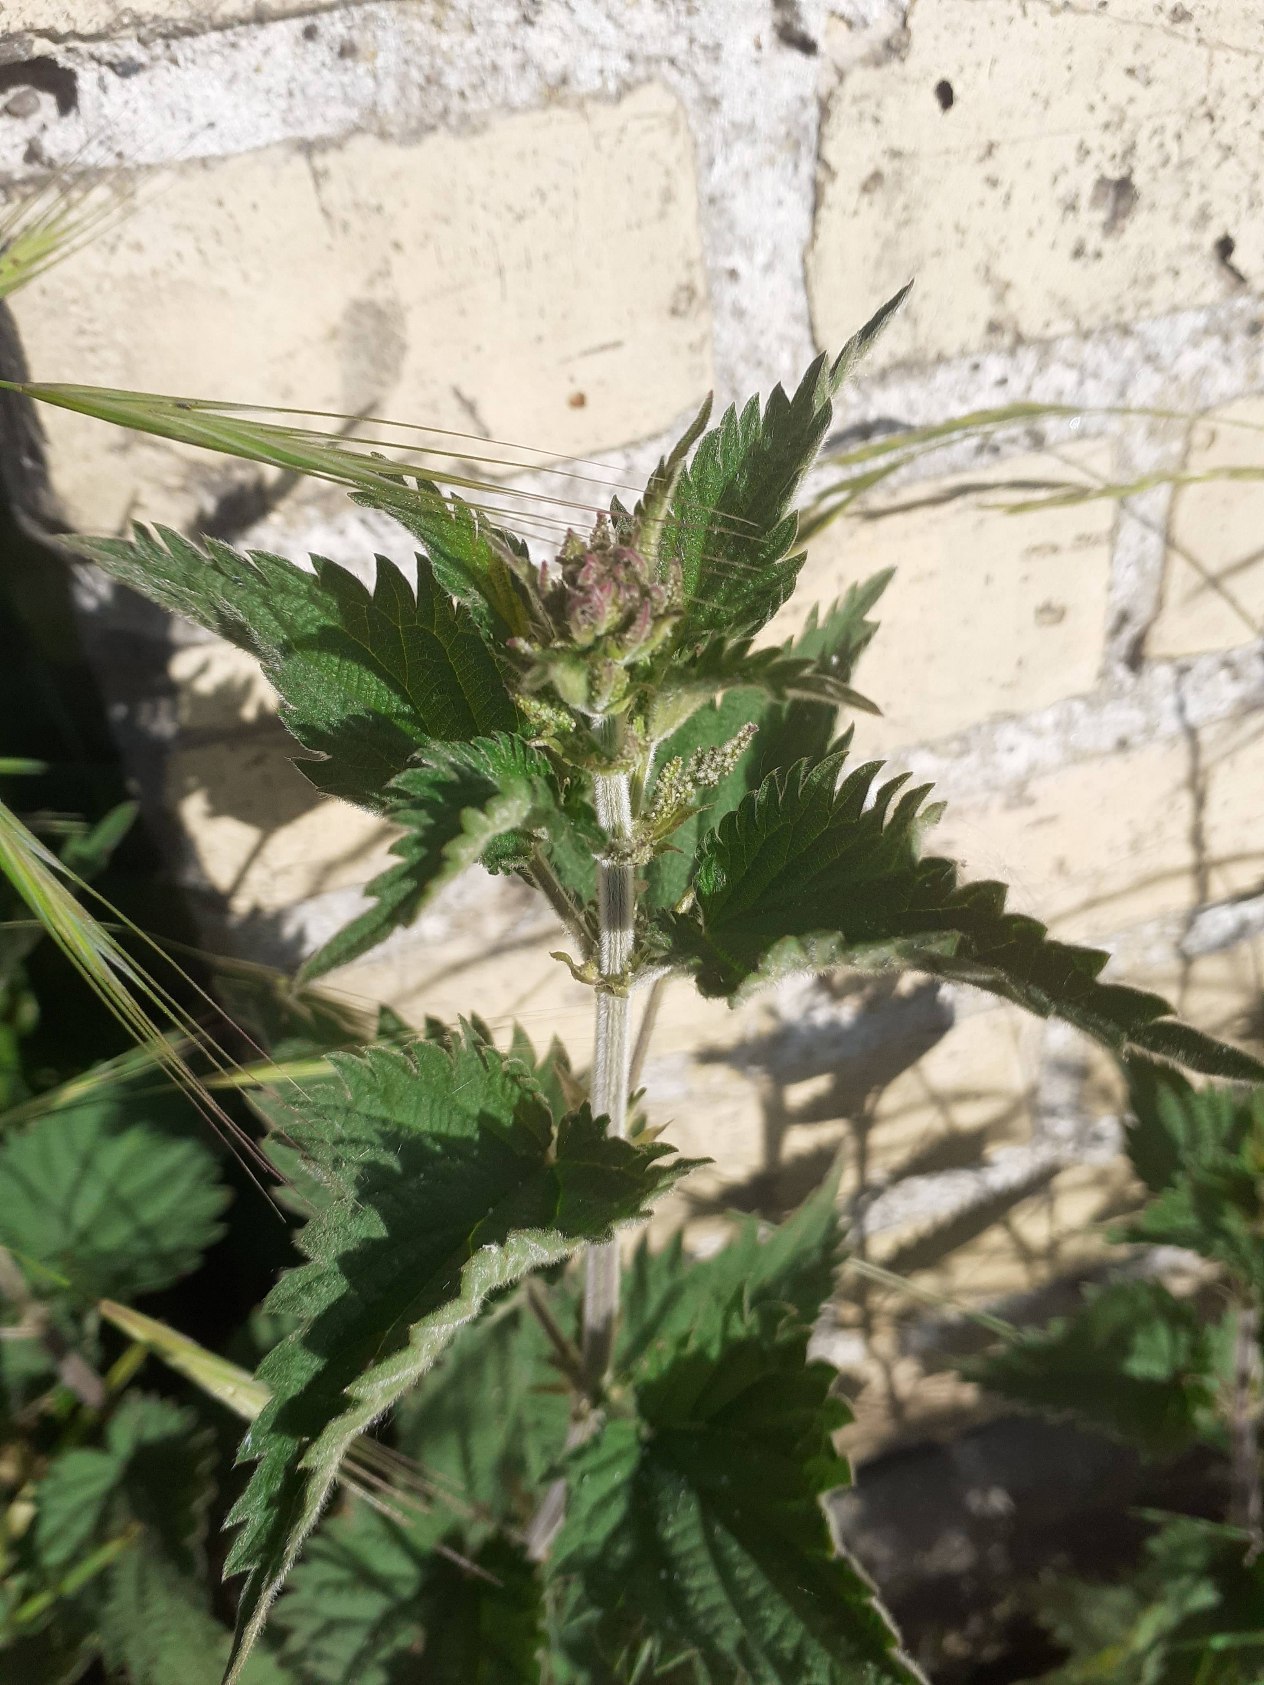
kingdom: Plantae
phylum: Tracheophyta
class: Magnoliopsida
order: Rosales
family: Urticaceae
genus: Urtica
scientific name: Urtica dioica
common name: Stor nælde
